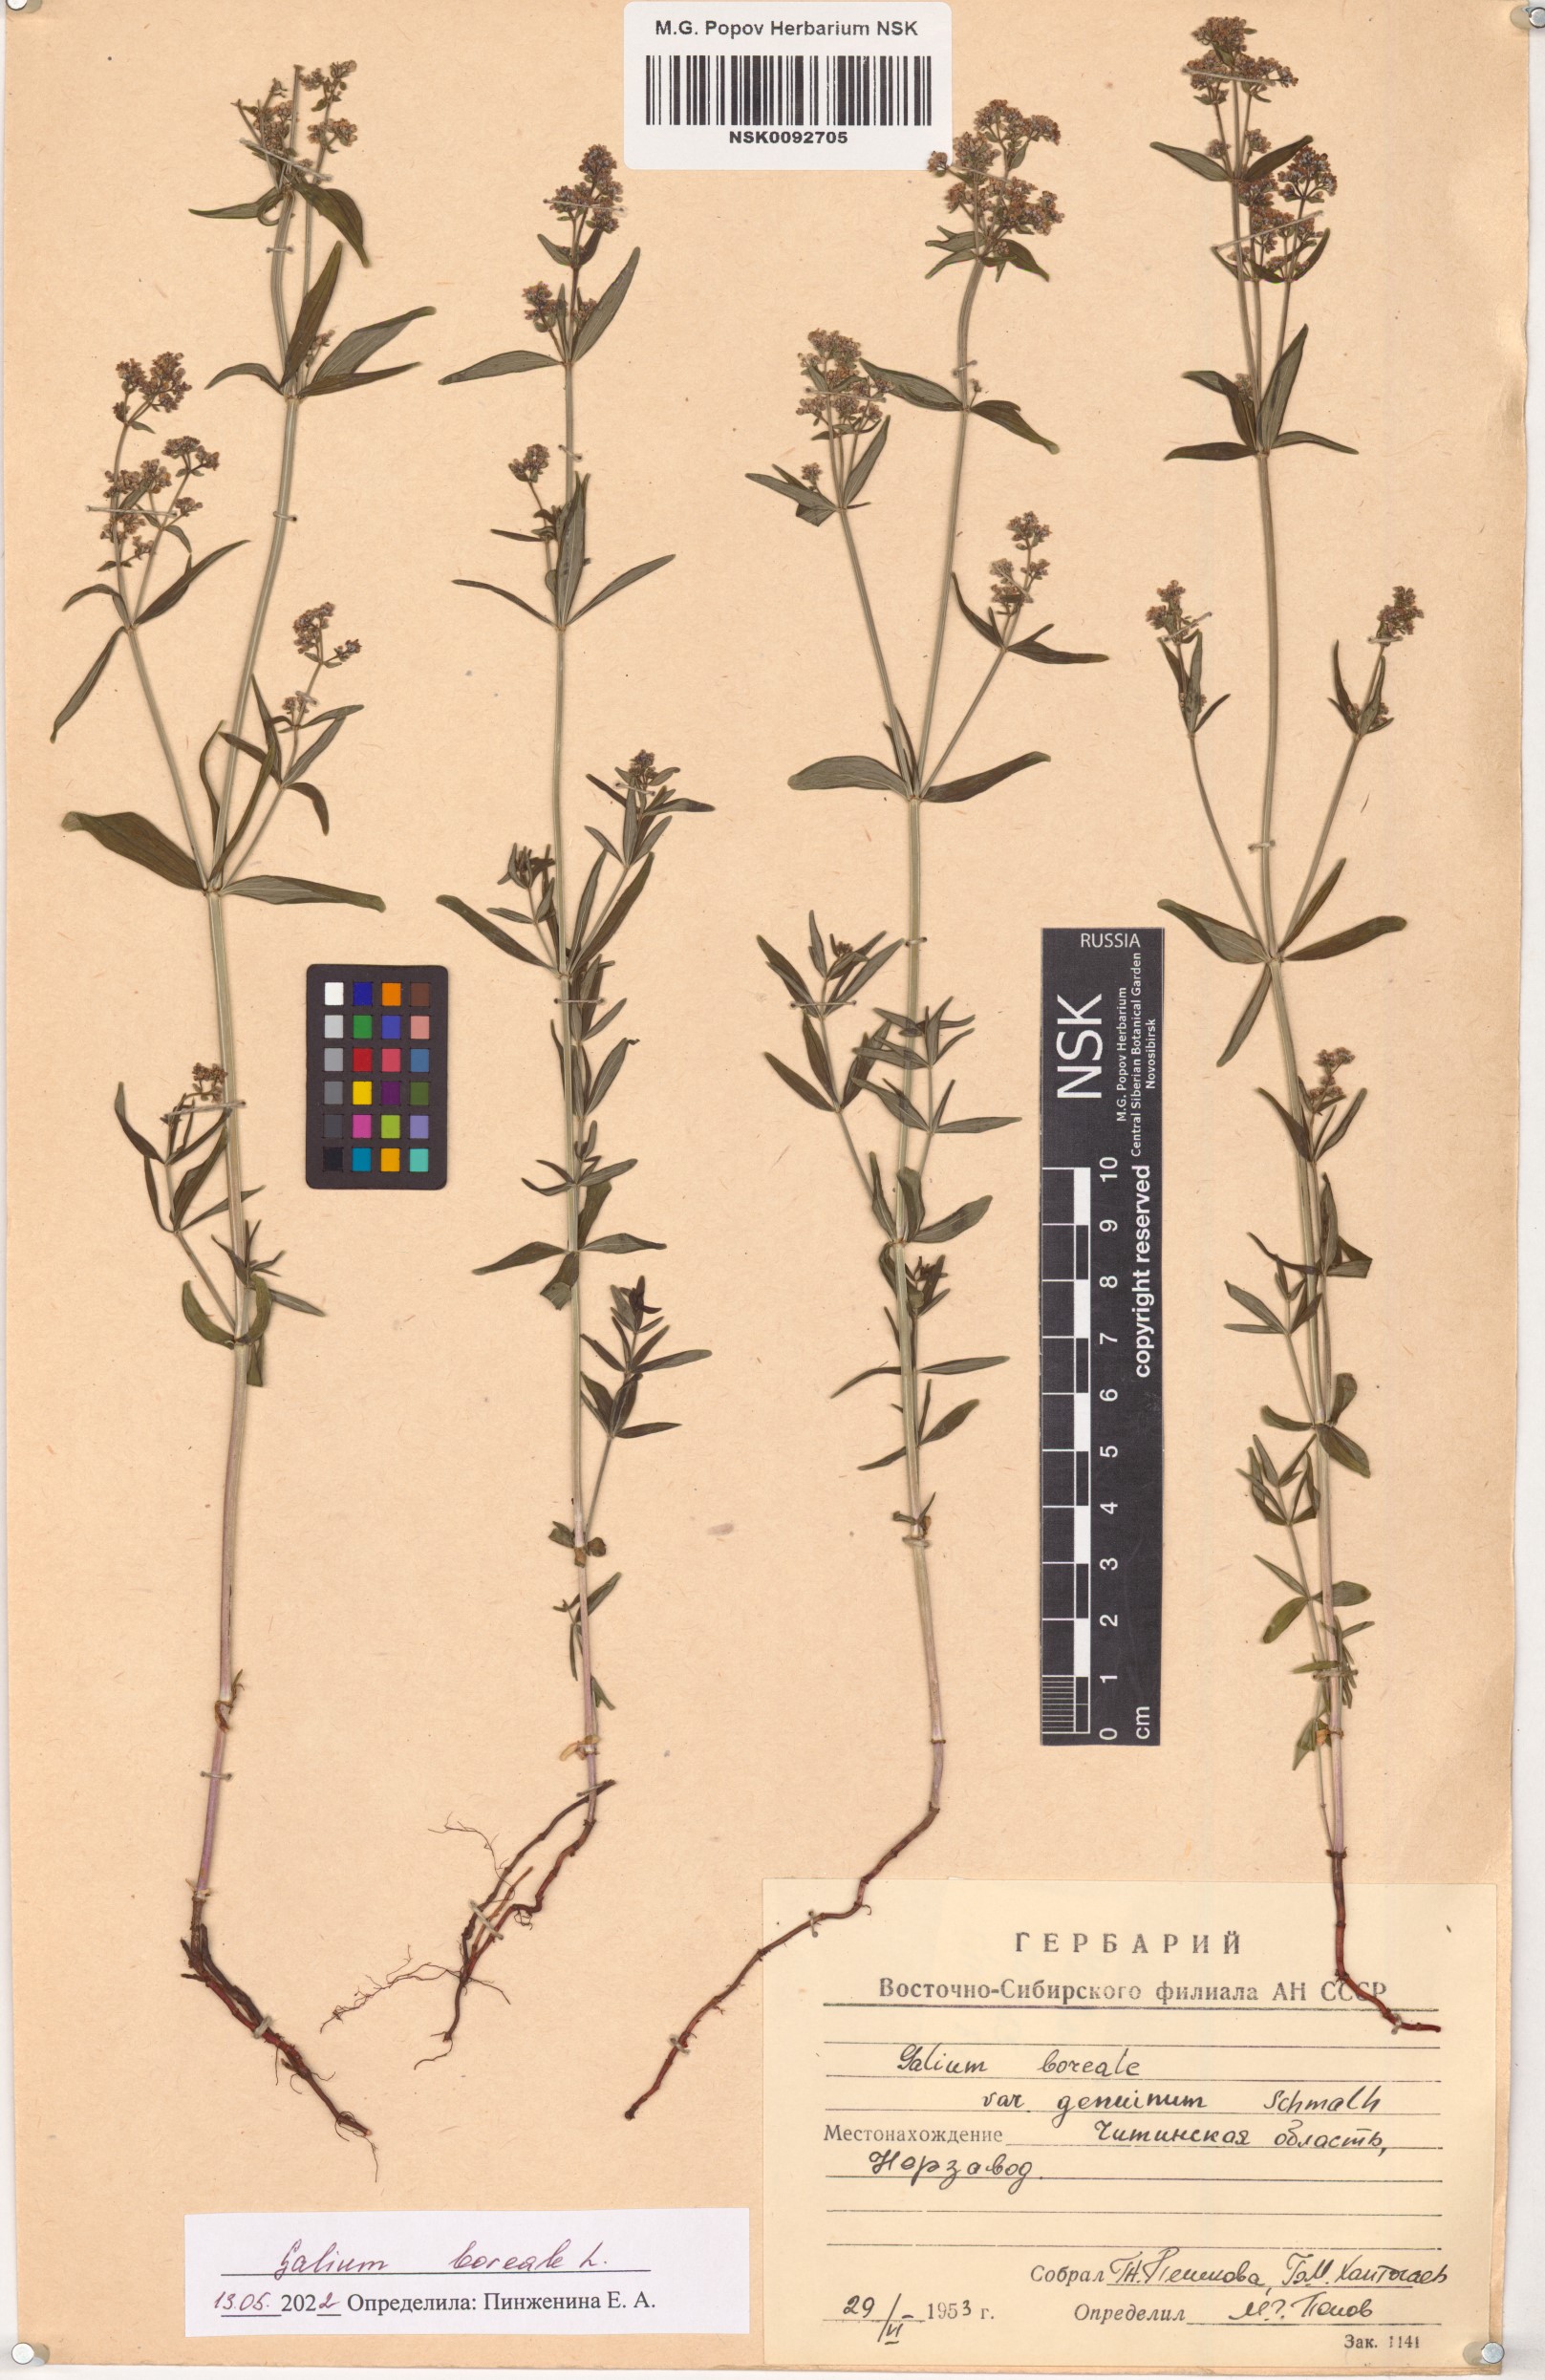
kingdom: Plantae
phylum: Tracheophyta
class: Magnoliopsida
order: Gentianales
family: Rubiaceae
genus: Galium
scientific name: Galium boreale
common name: Northern bedstraw
